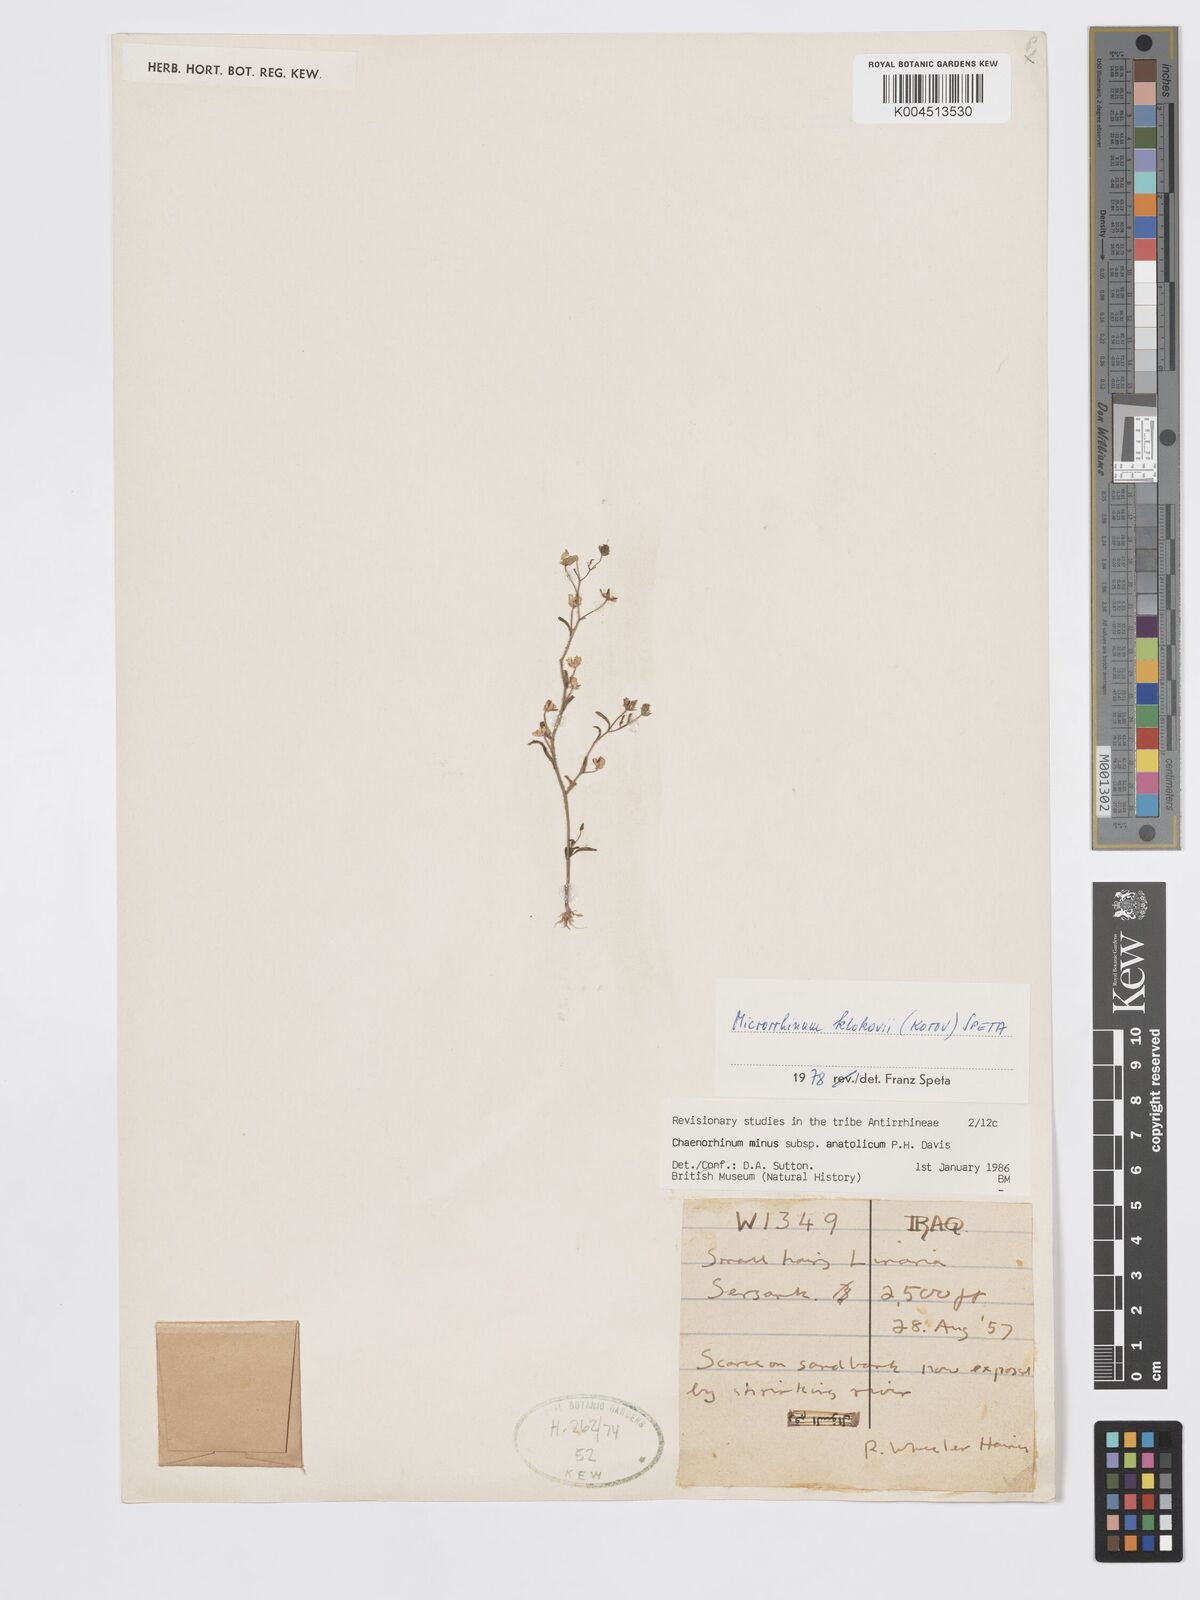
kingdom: Plantae
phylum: Tracheophyta
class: Magnoliopsida
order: Lamiales
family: Plantaginaceae
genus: Chaenorhinum
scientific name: Chaenorhinum minus
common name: Dwarf snapdragon
